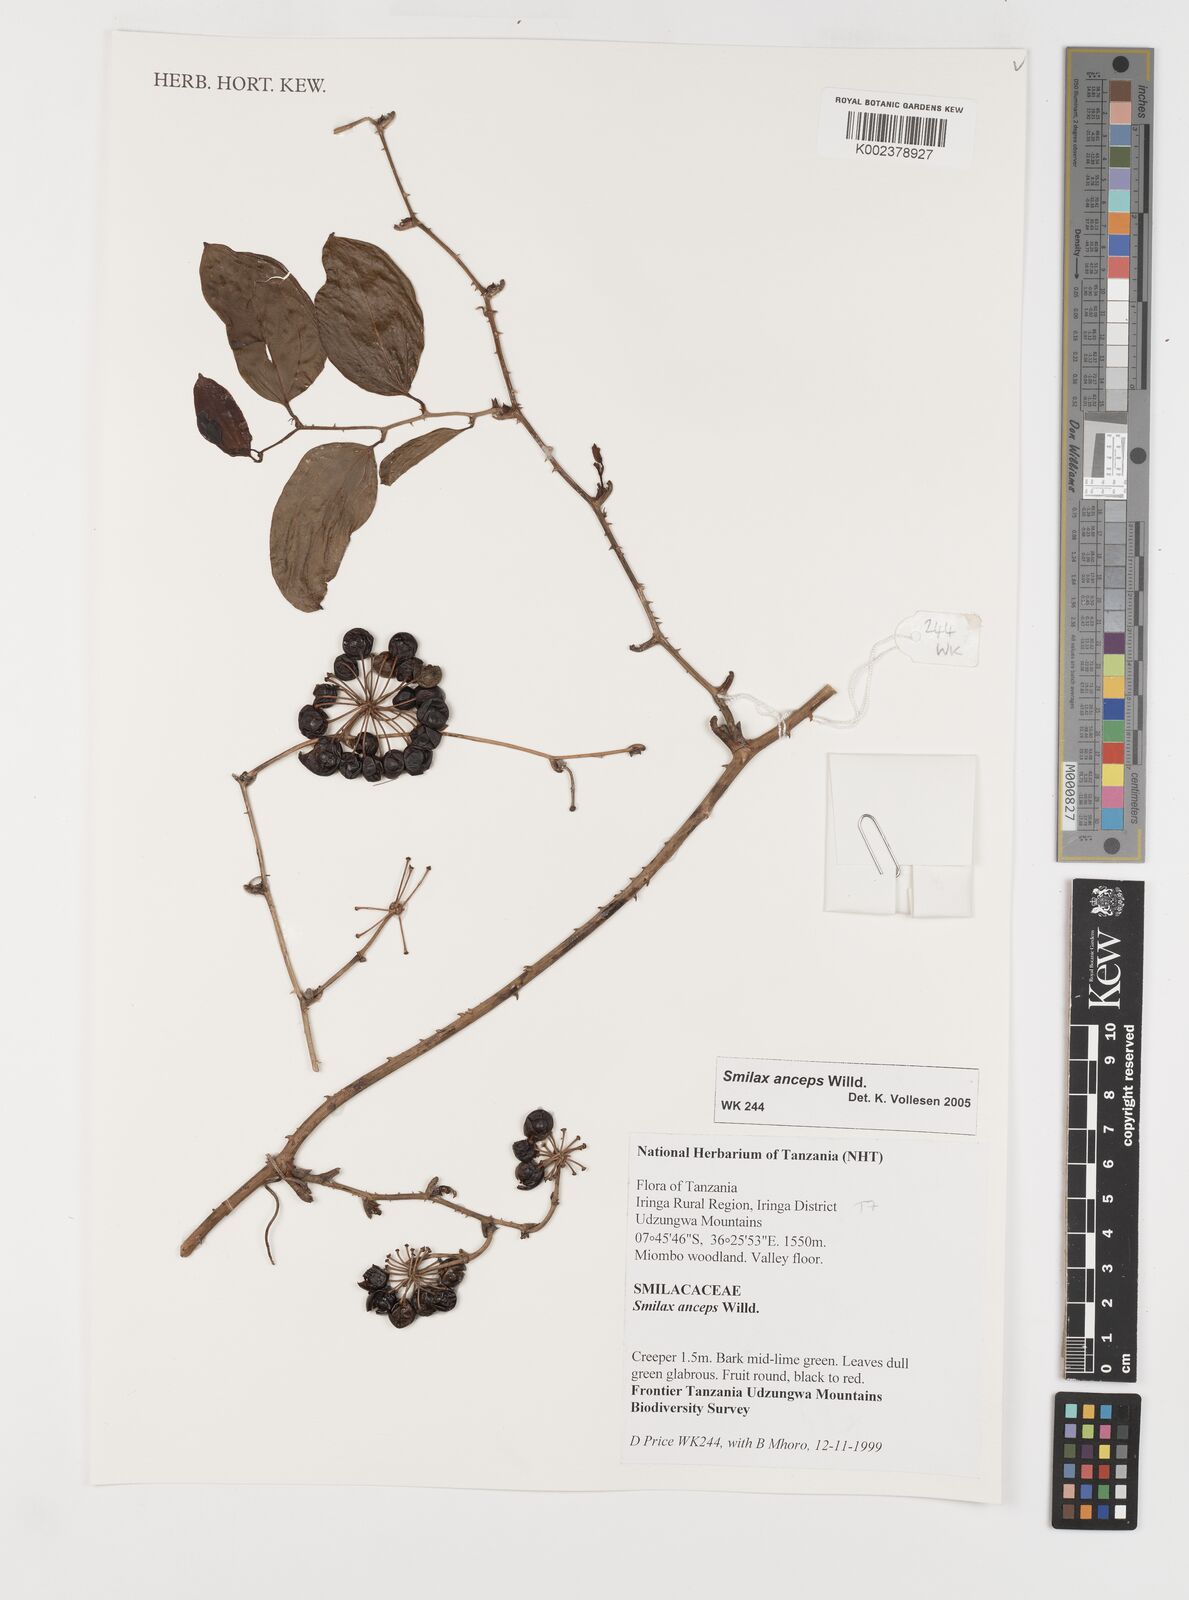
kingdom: Plantae
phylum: Tracheophyta
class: Liliopsida
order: Liliales
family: Smilacaceae
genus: Smilax
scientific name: Smilax anceps
